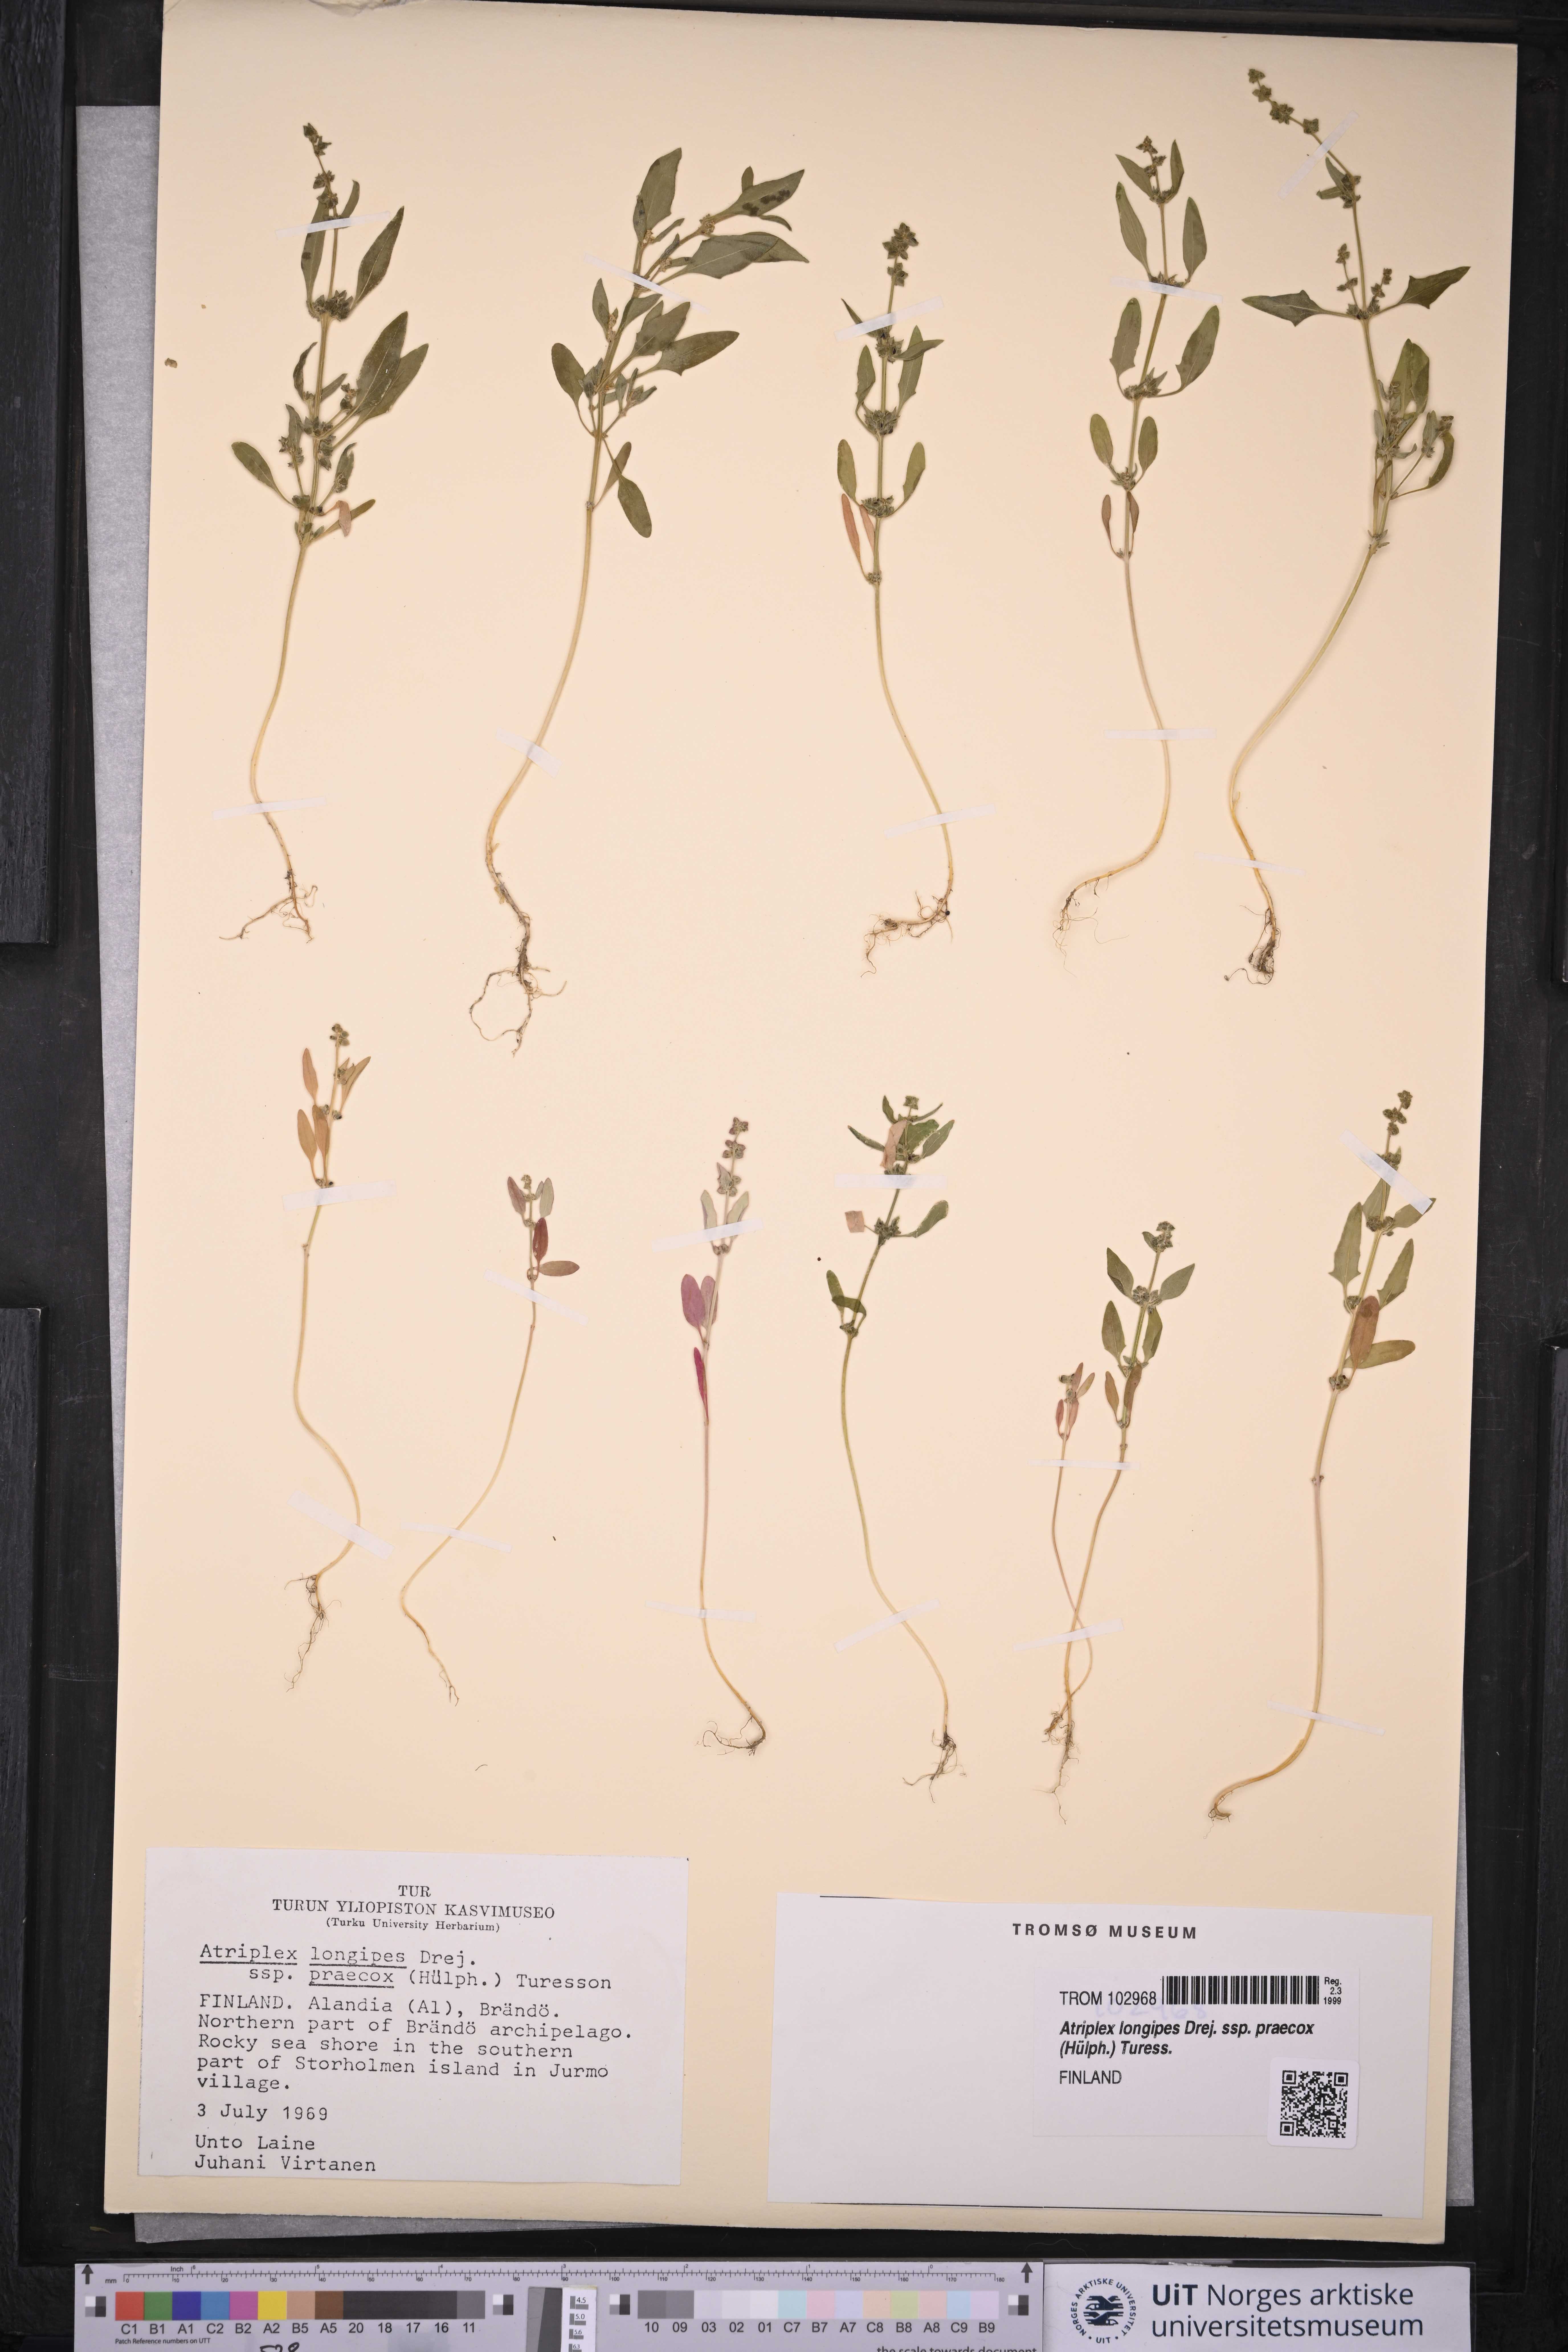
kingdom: Plantae
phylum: Tracheophyta
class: Magnoliopsida
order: Caryophyllales
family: Amaranthaceae
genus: Atriplex
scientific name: Atriplex praecox
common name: Early orache
